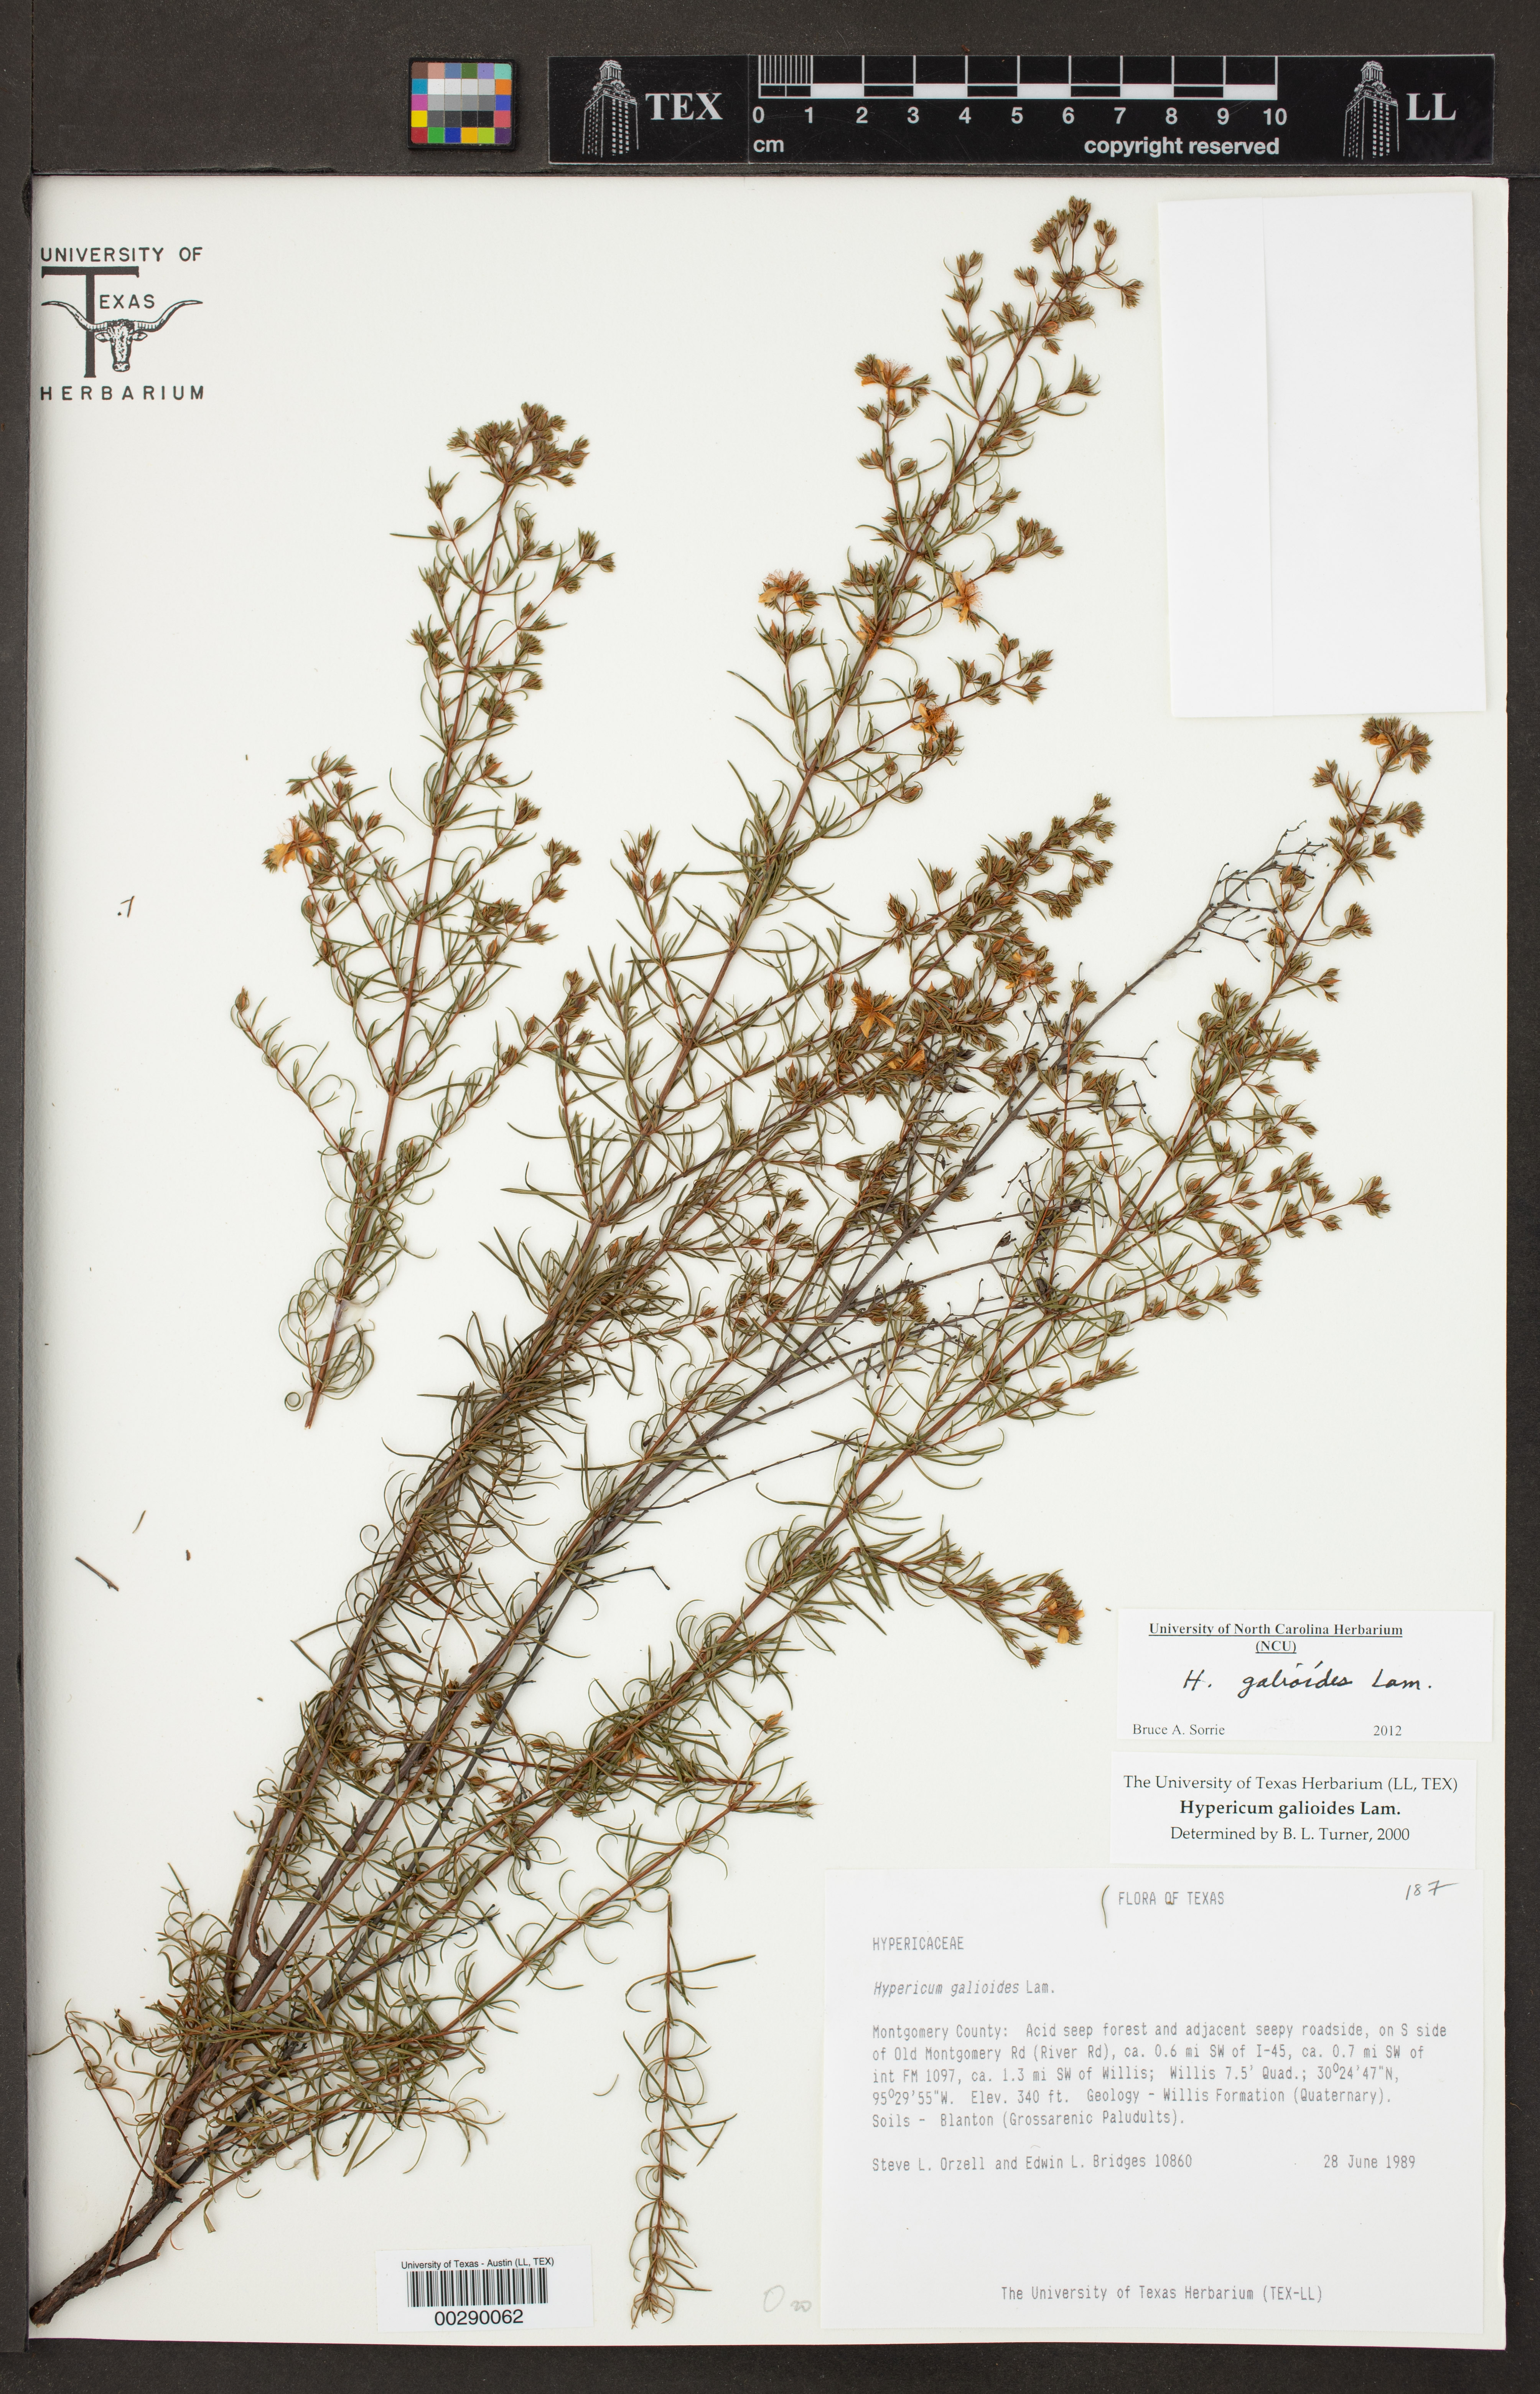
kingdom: Plantae
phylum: Tracheophyta
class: Magnoliopsida
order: Malpighiales
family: Hypericaceae
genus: Hypericum
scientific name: Hypericum galioides
